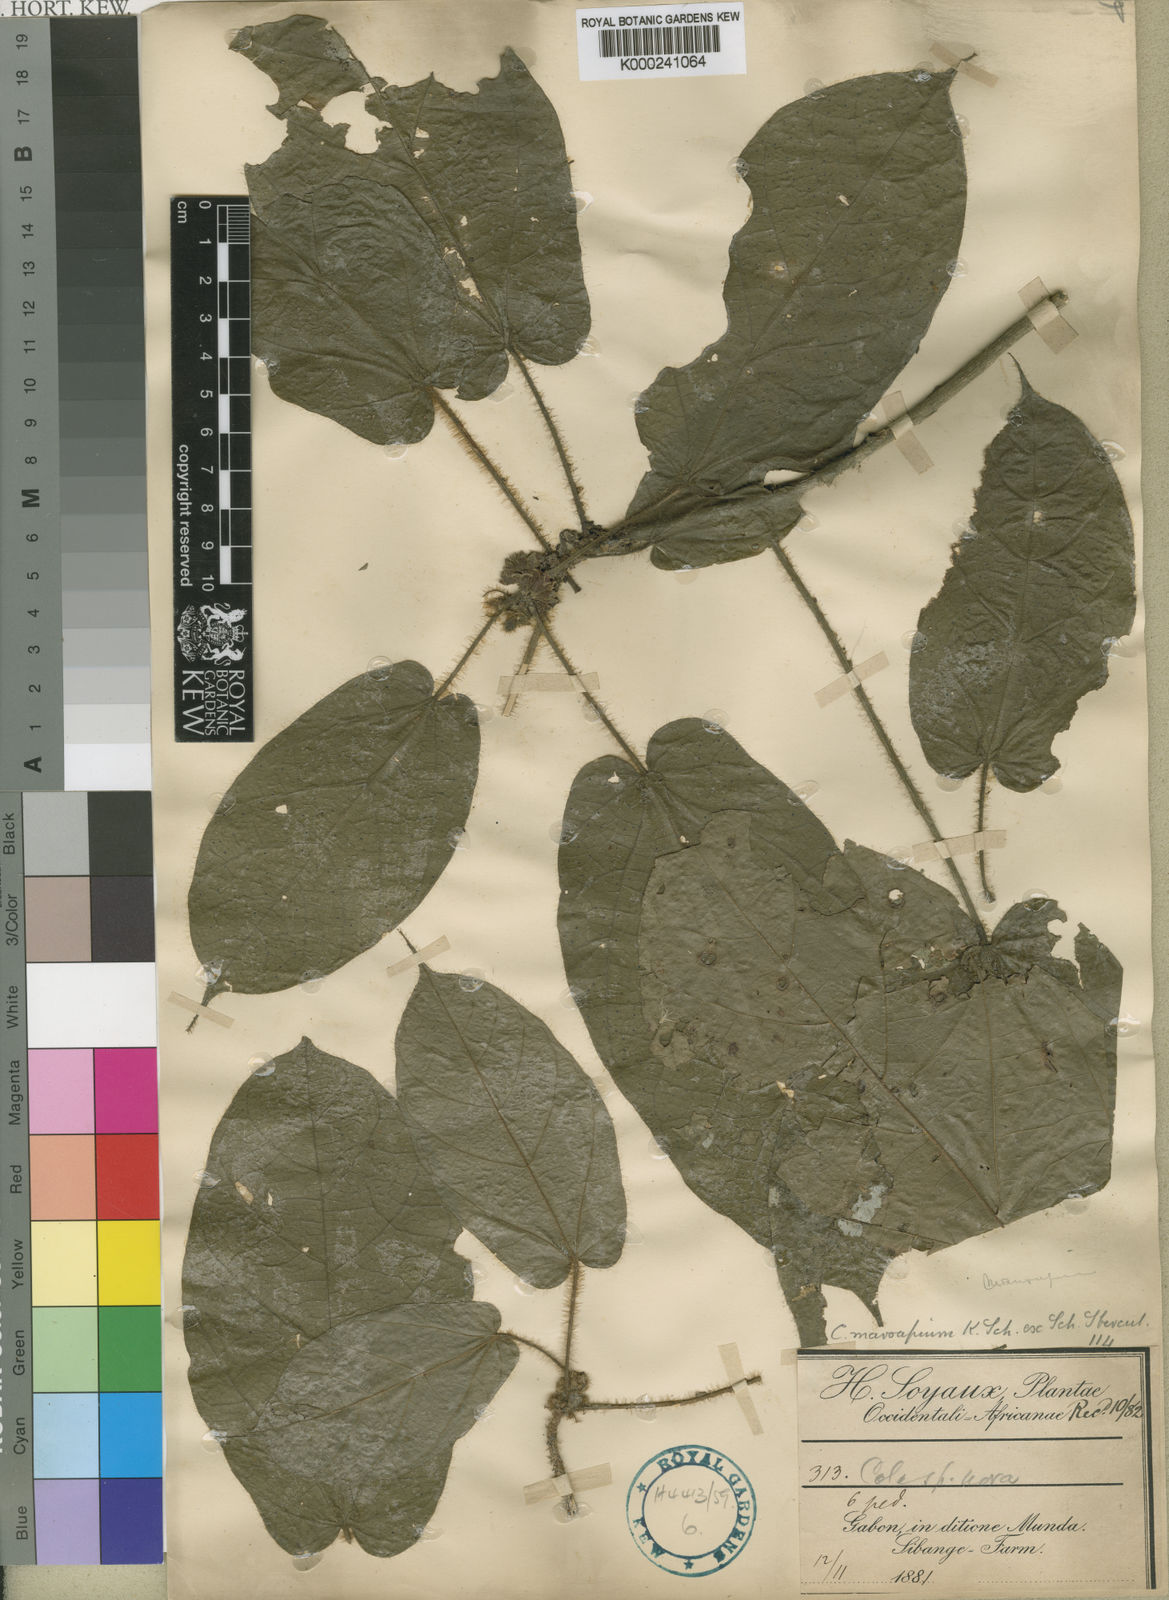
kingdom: Plantae
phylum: Tracheophyta
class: Magnoliopsida
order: Malvales
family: Malvaceae
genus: Cola
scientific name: Cola
